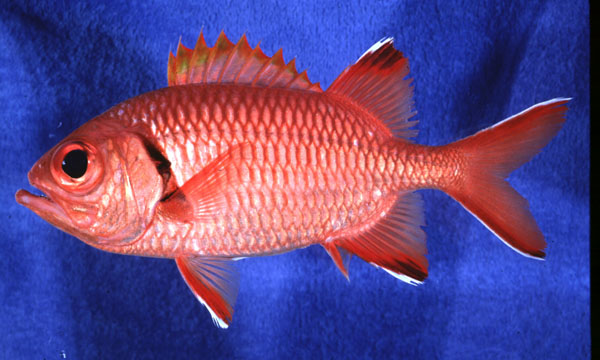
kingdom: Animalia
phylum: Chordata
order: Beryciformes
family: Holocentridae
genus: Myripristis
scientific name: Myripristis kuntee
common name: Epaulette soldierfish
